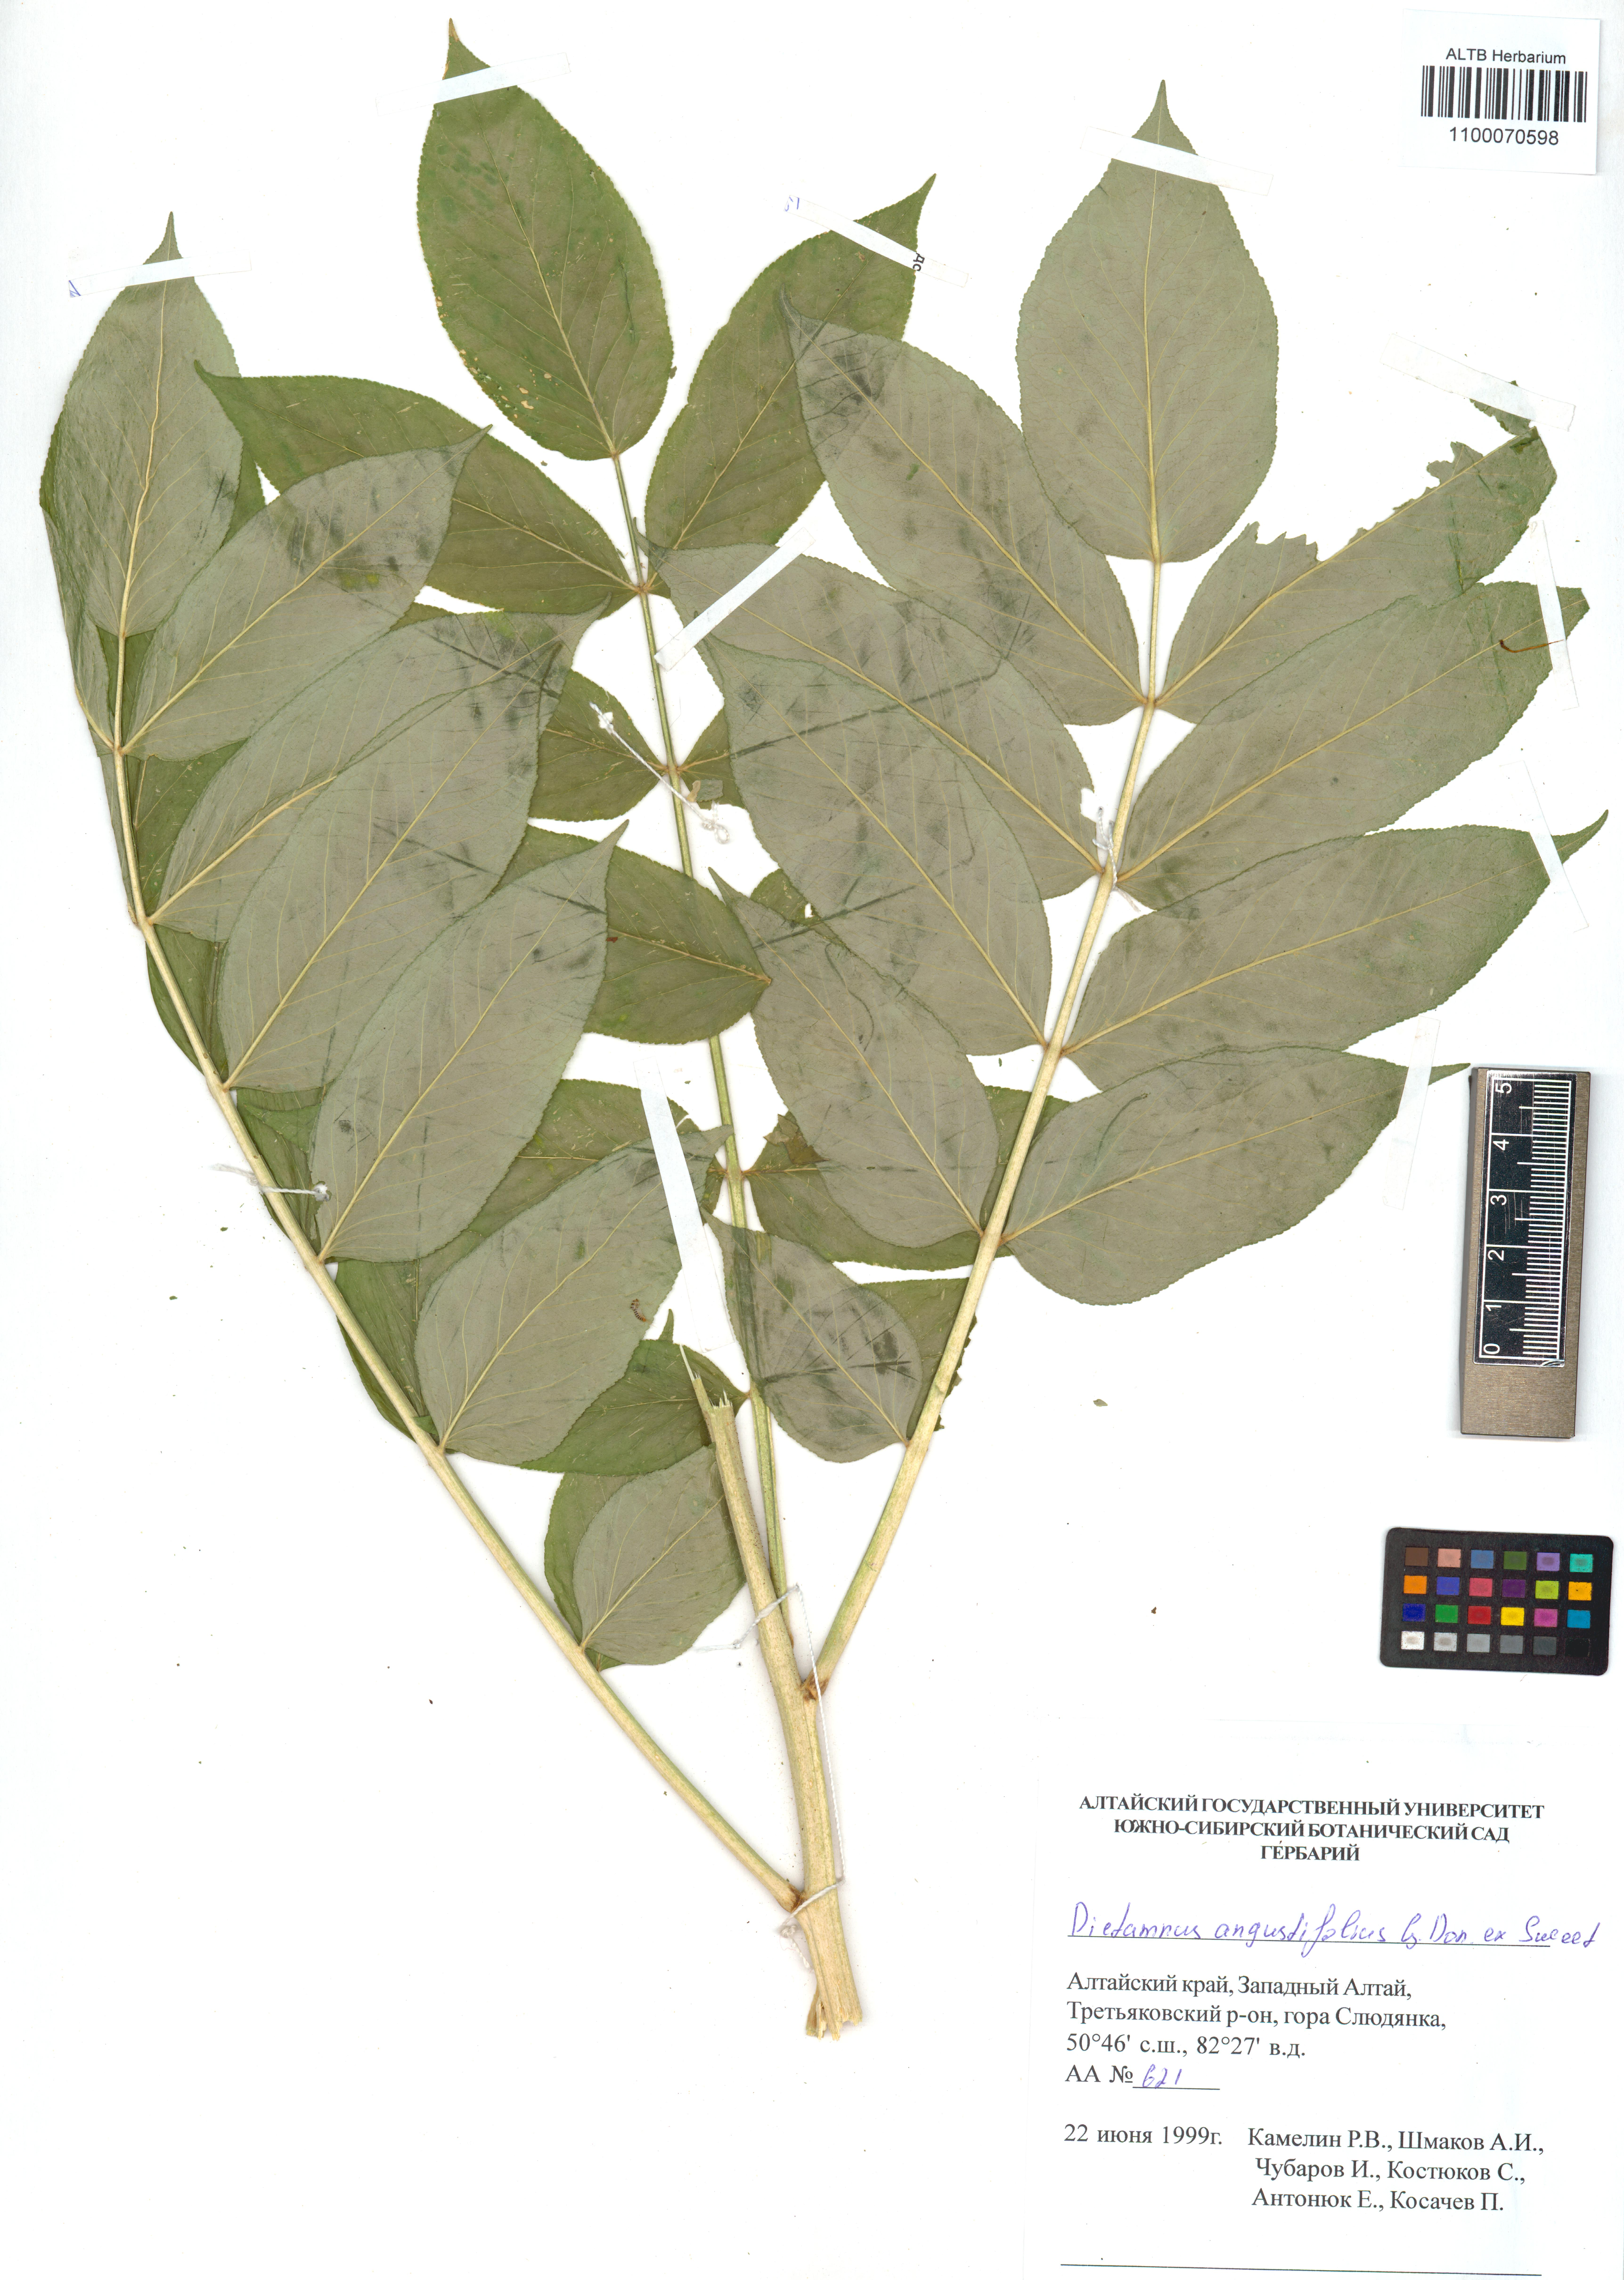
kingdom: Plantae
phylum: Tracheophyta
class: Magnoliopsida
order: Sapindales
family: Rutaceae
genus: Dictamnus
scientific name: Dictamnus albus
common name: Gasplant
